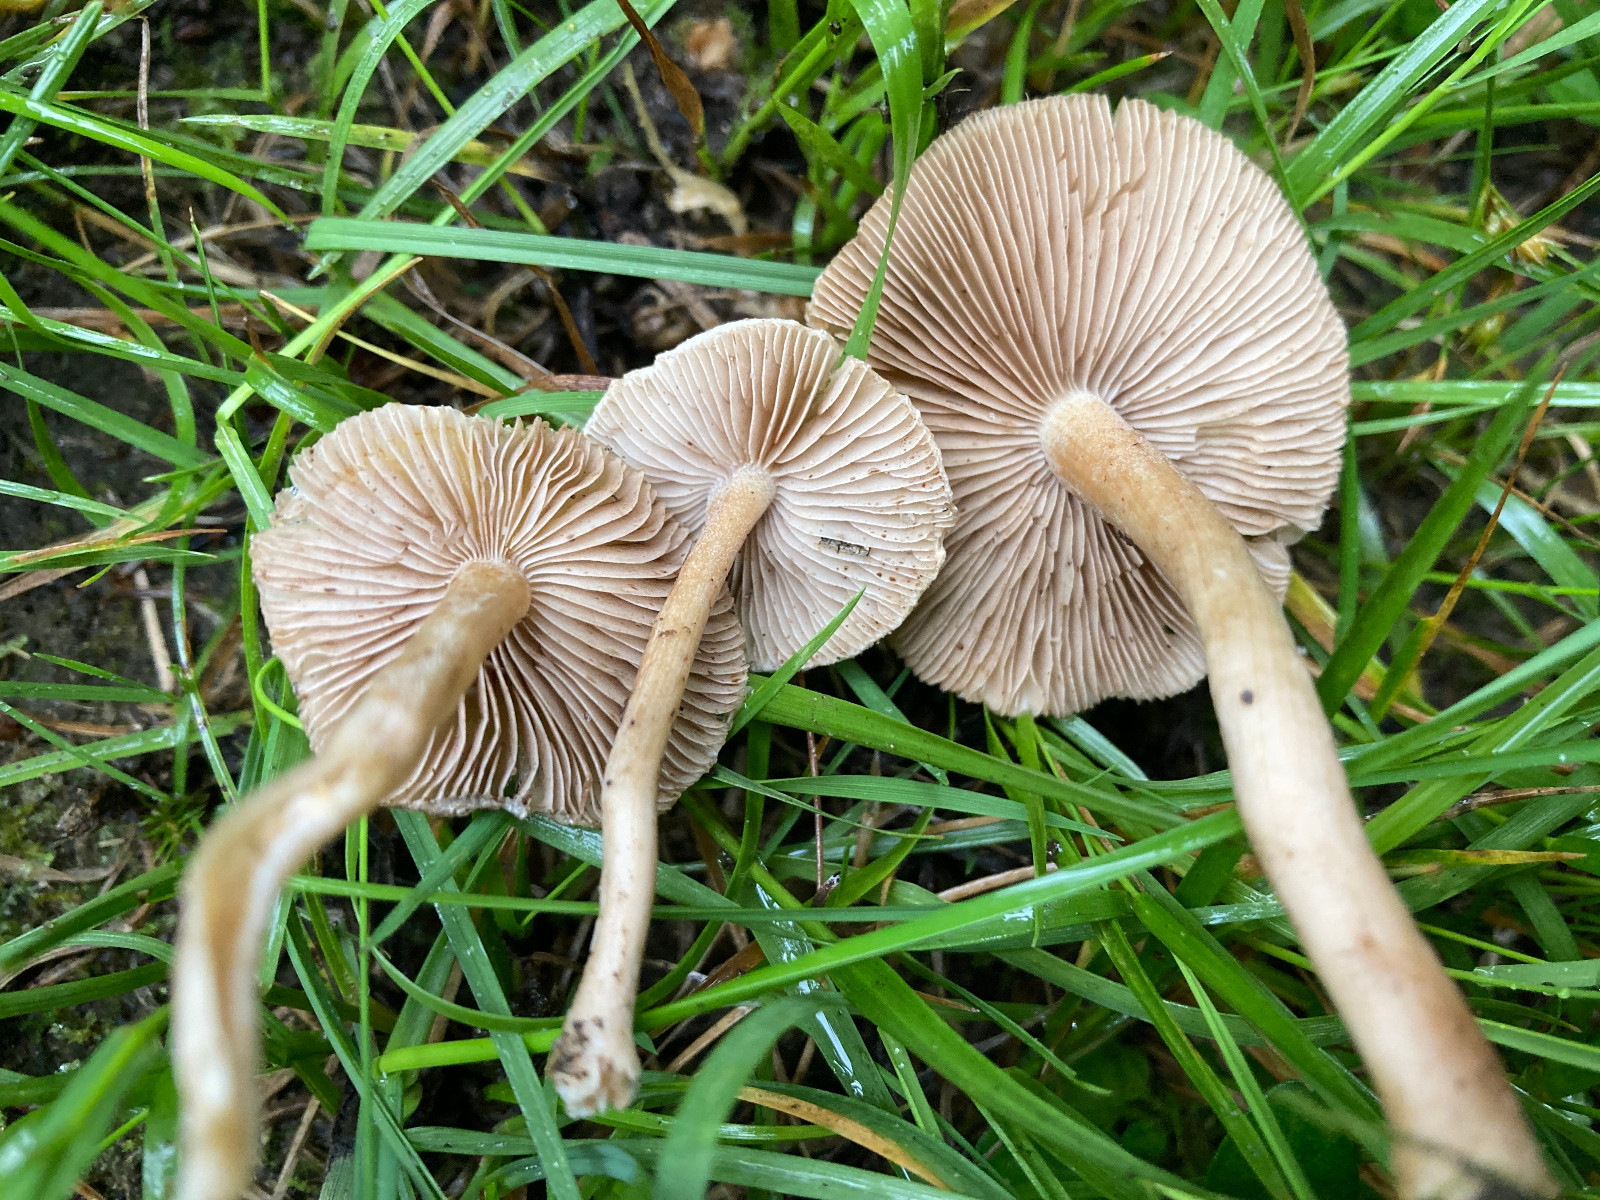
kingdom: Fungi
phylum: Basidiomycota
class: Agaricomycetes
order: Agaricales
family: Inocybaceae
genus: Inocybe
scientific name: Inocybe
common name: trævlhat
